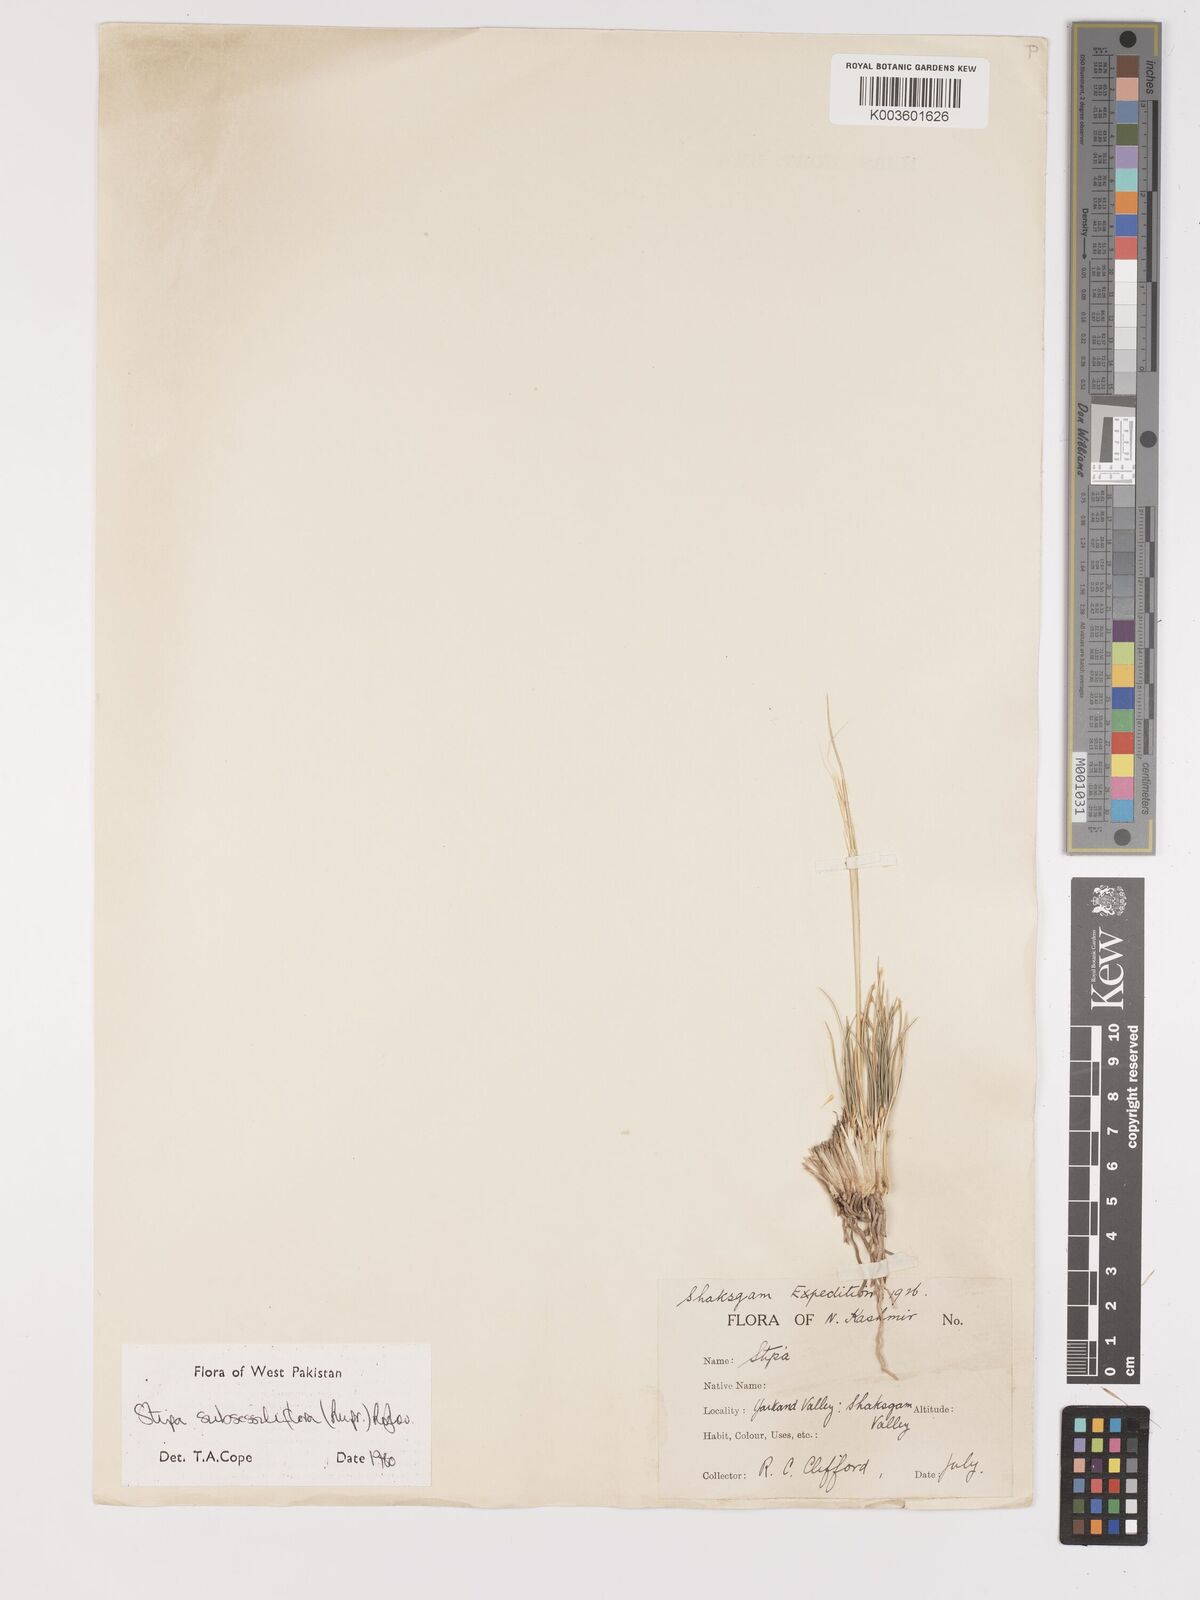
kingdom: Plantae
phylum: Tracheophyta
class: Liliopsida
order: Poales
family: Poaceae
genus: Stipa
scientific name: Stipa subsessiliflora
